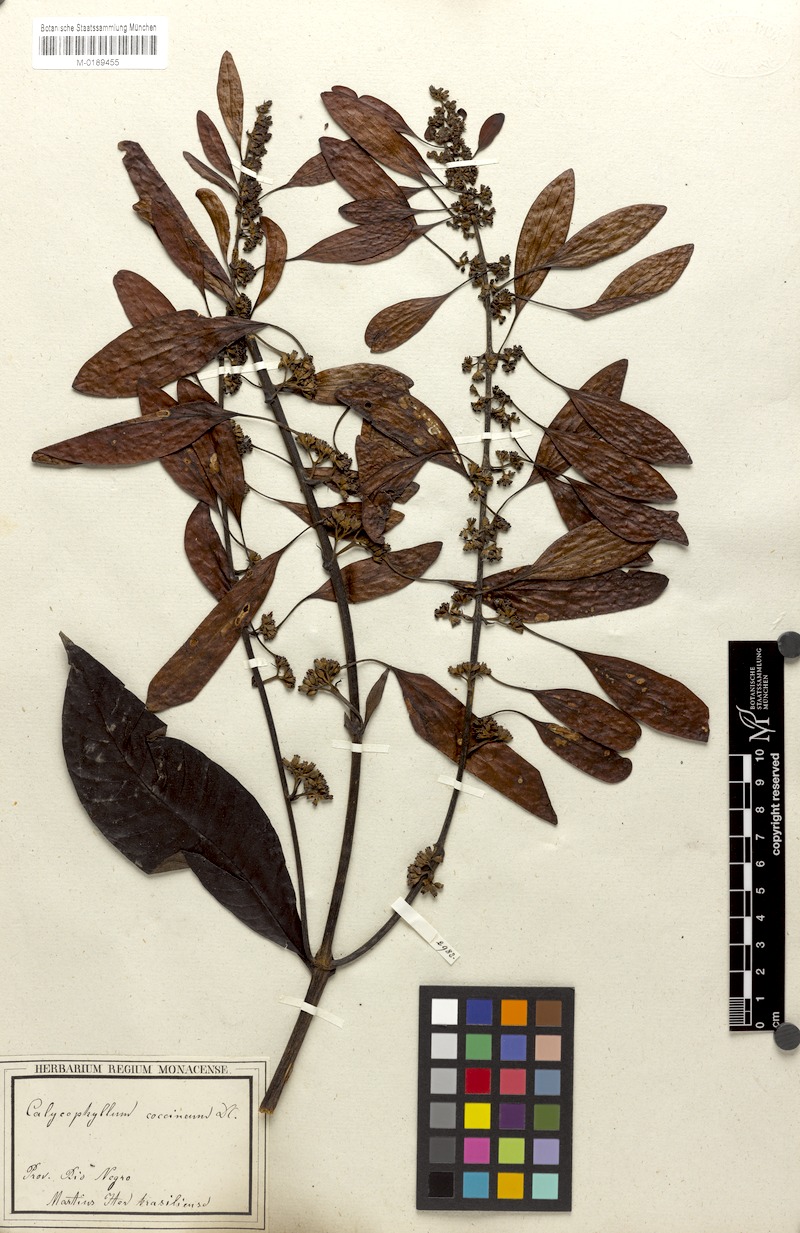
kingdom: Plantae
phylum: Tracheophyta
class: Magnoliopsida
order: Gentianales
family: Rubiaceae
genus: Warszewiczia
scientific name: Warszewiczia coccinea
